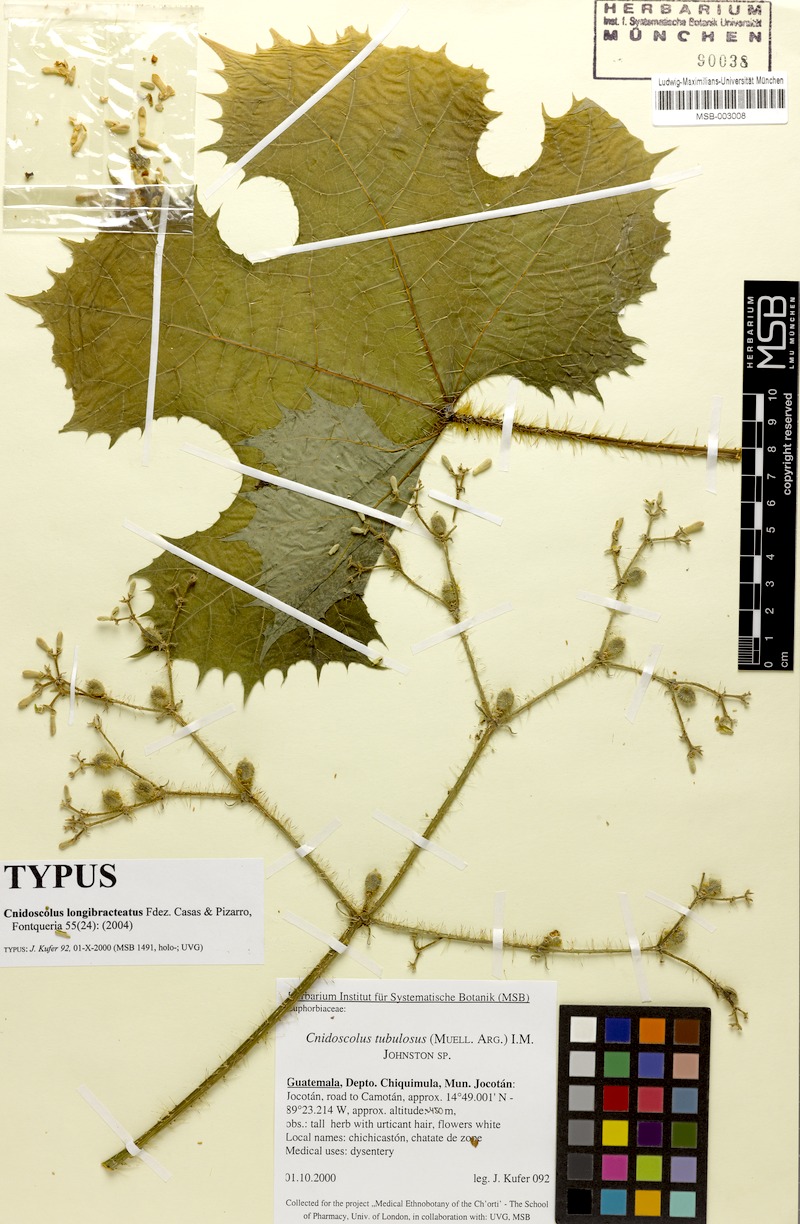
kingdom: Plantae
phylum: Tracheophyta
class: Magnoliopsida
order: Malpighiales
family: Euphorbiaceae
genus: Cnidoscolus
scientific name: Cnidoscolus longibracteatus
